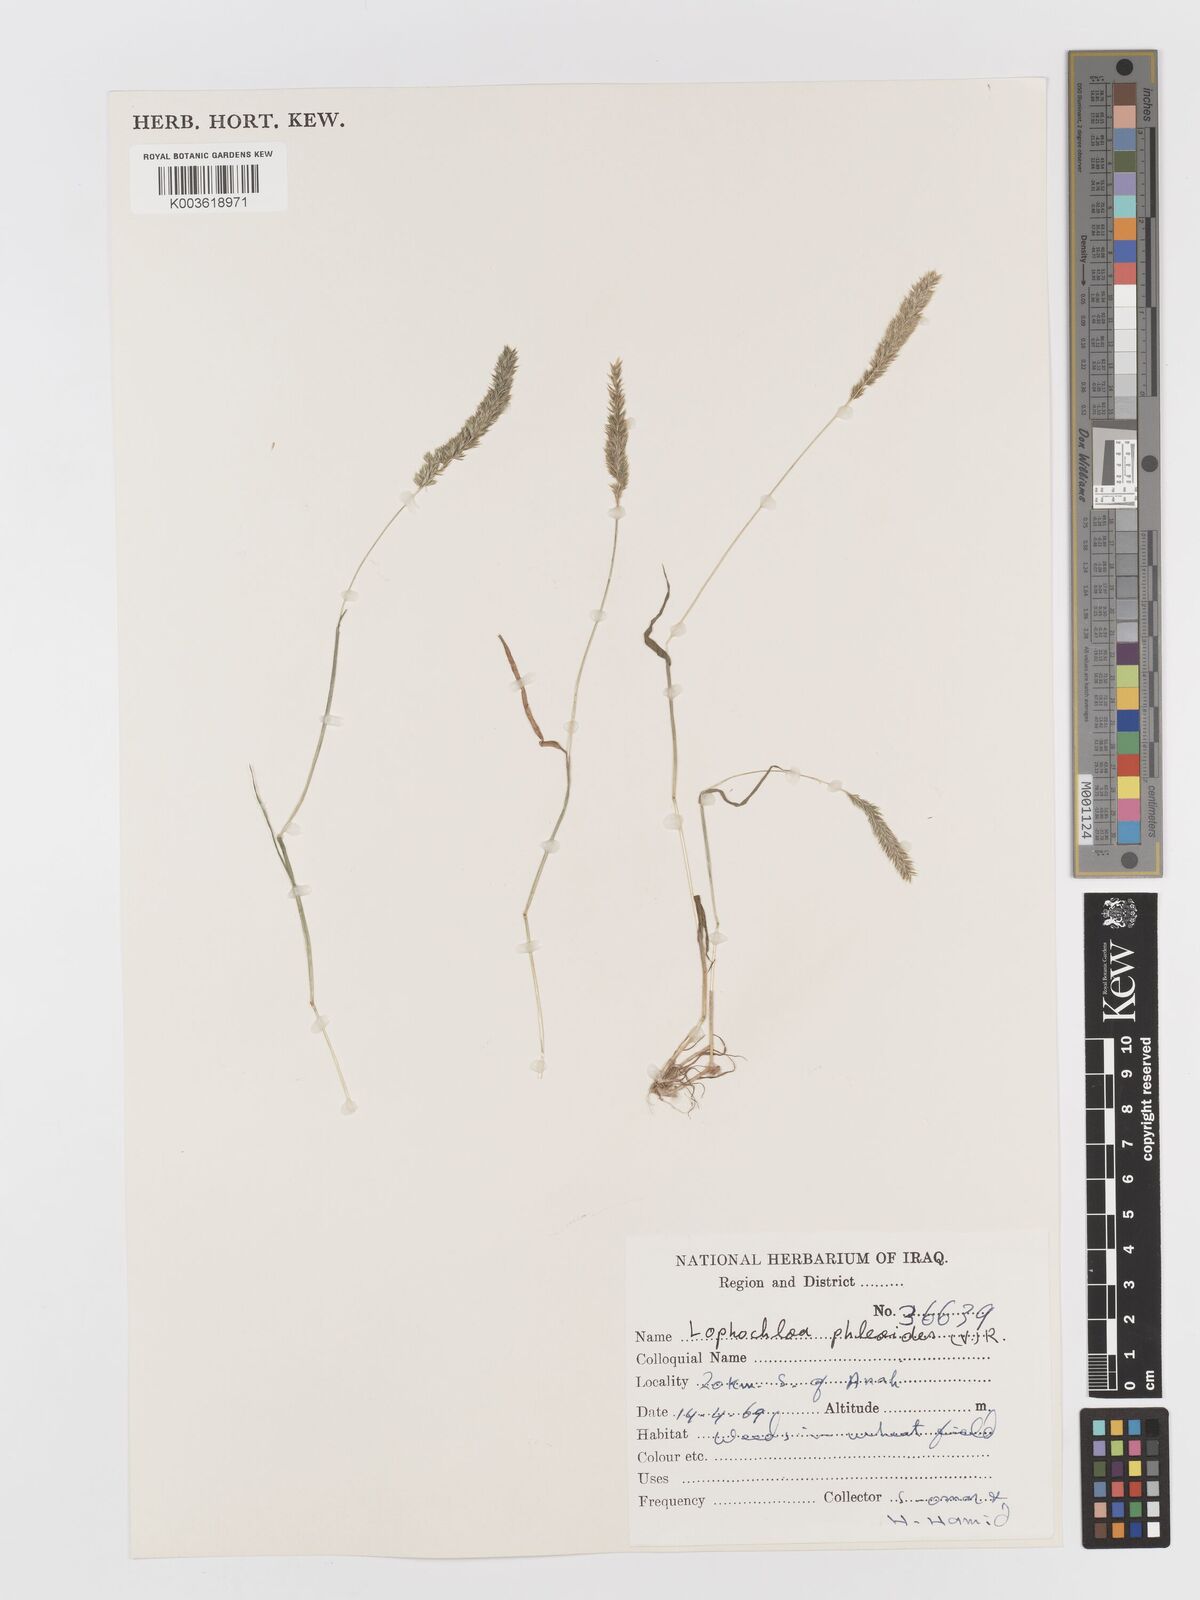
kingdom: Plantae
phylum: Tracheophyta
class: Liliopsida
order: Poales
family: Poaceae
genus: Rostraria
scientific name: Rostraria cristata
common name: Mediterranean hair-grass
